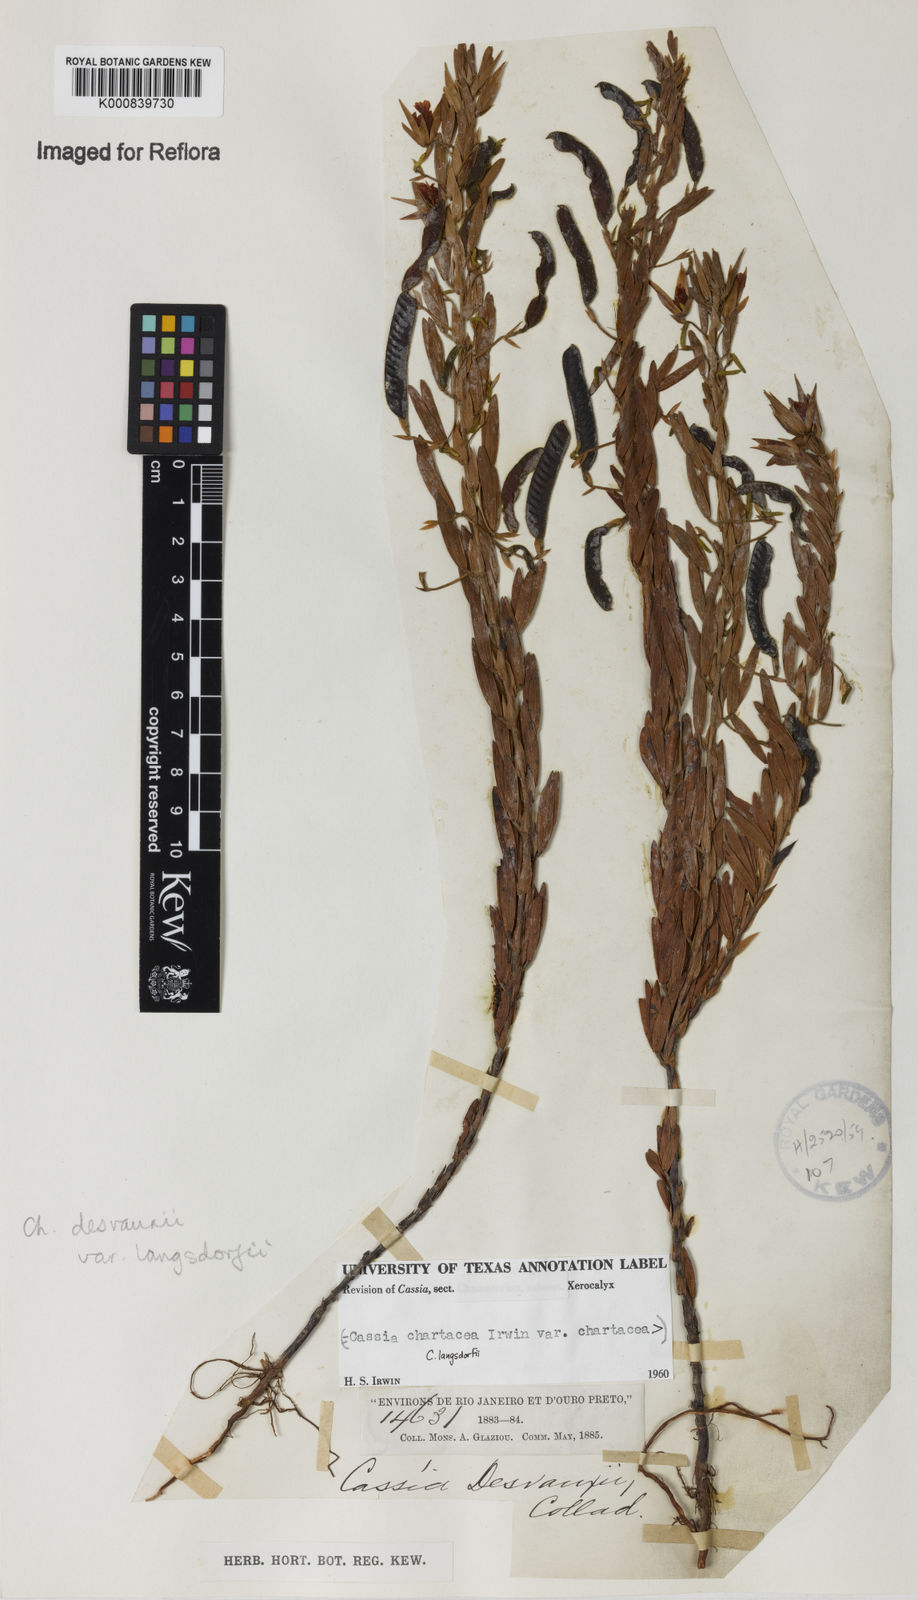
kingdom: Plantae
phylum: Tracheophyta
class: Magnoliopsida
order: Fabales
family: Fabaceae
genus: Chamaecrista
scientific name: Chamaecrista langsdorffii
